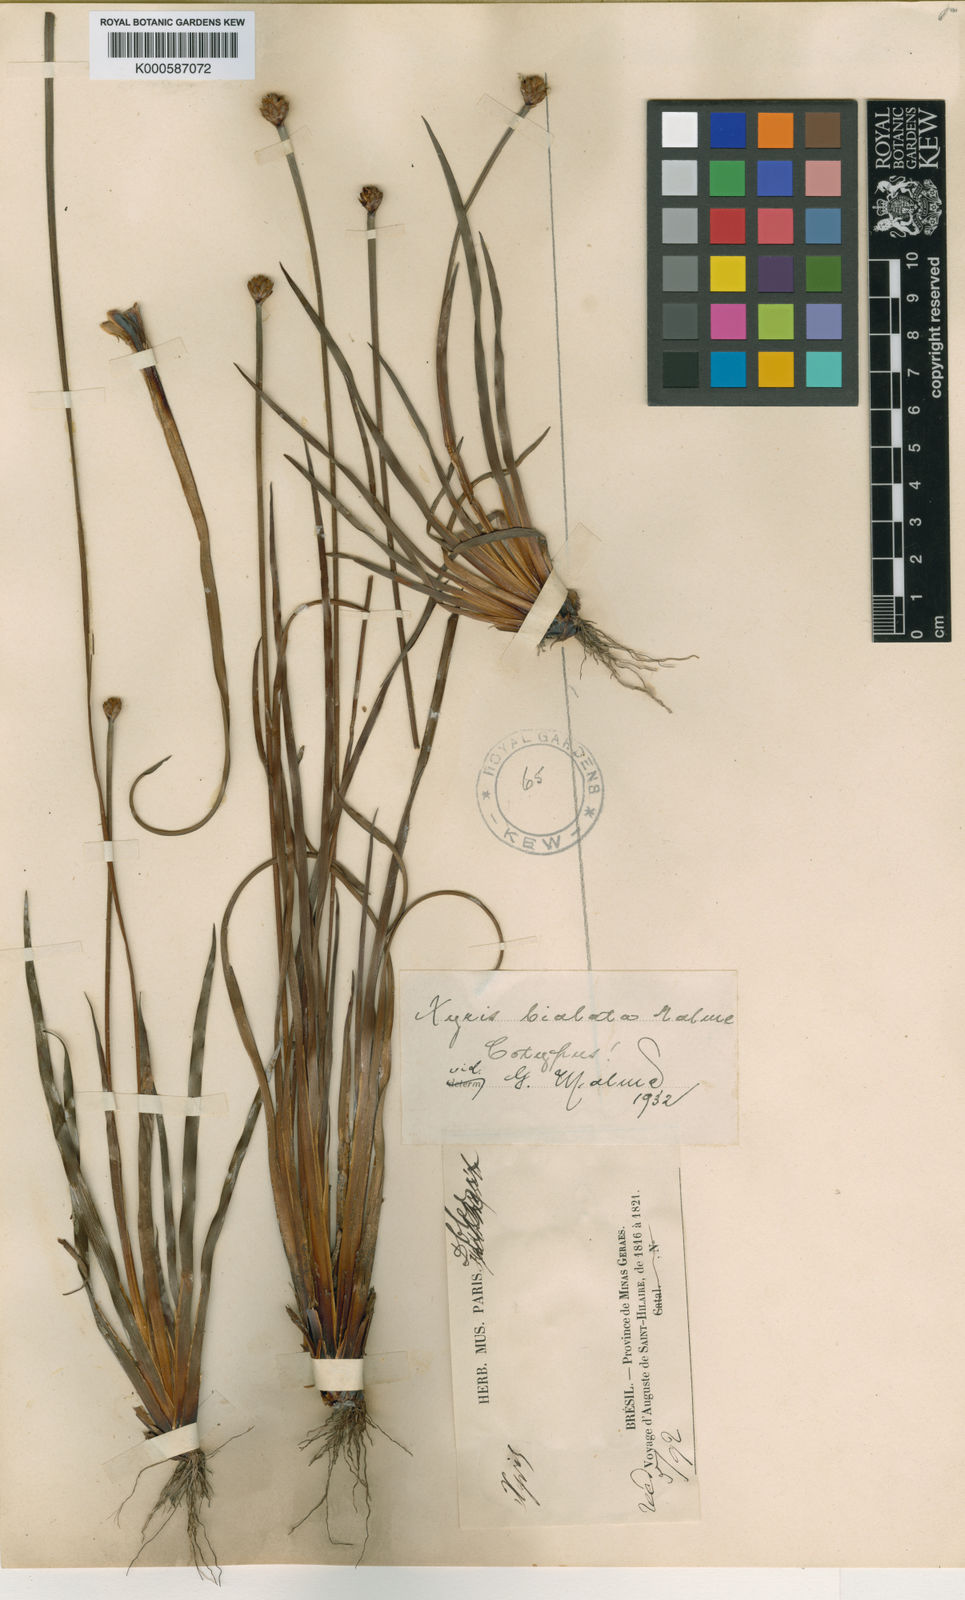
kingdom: Plantae
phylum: Tracheophyta
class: Liliopsida
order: Poales
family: Xyridaceae
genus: Xyris
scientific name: Xyris bialata
